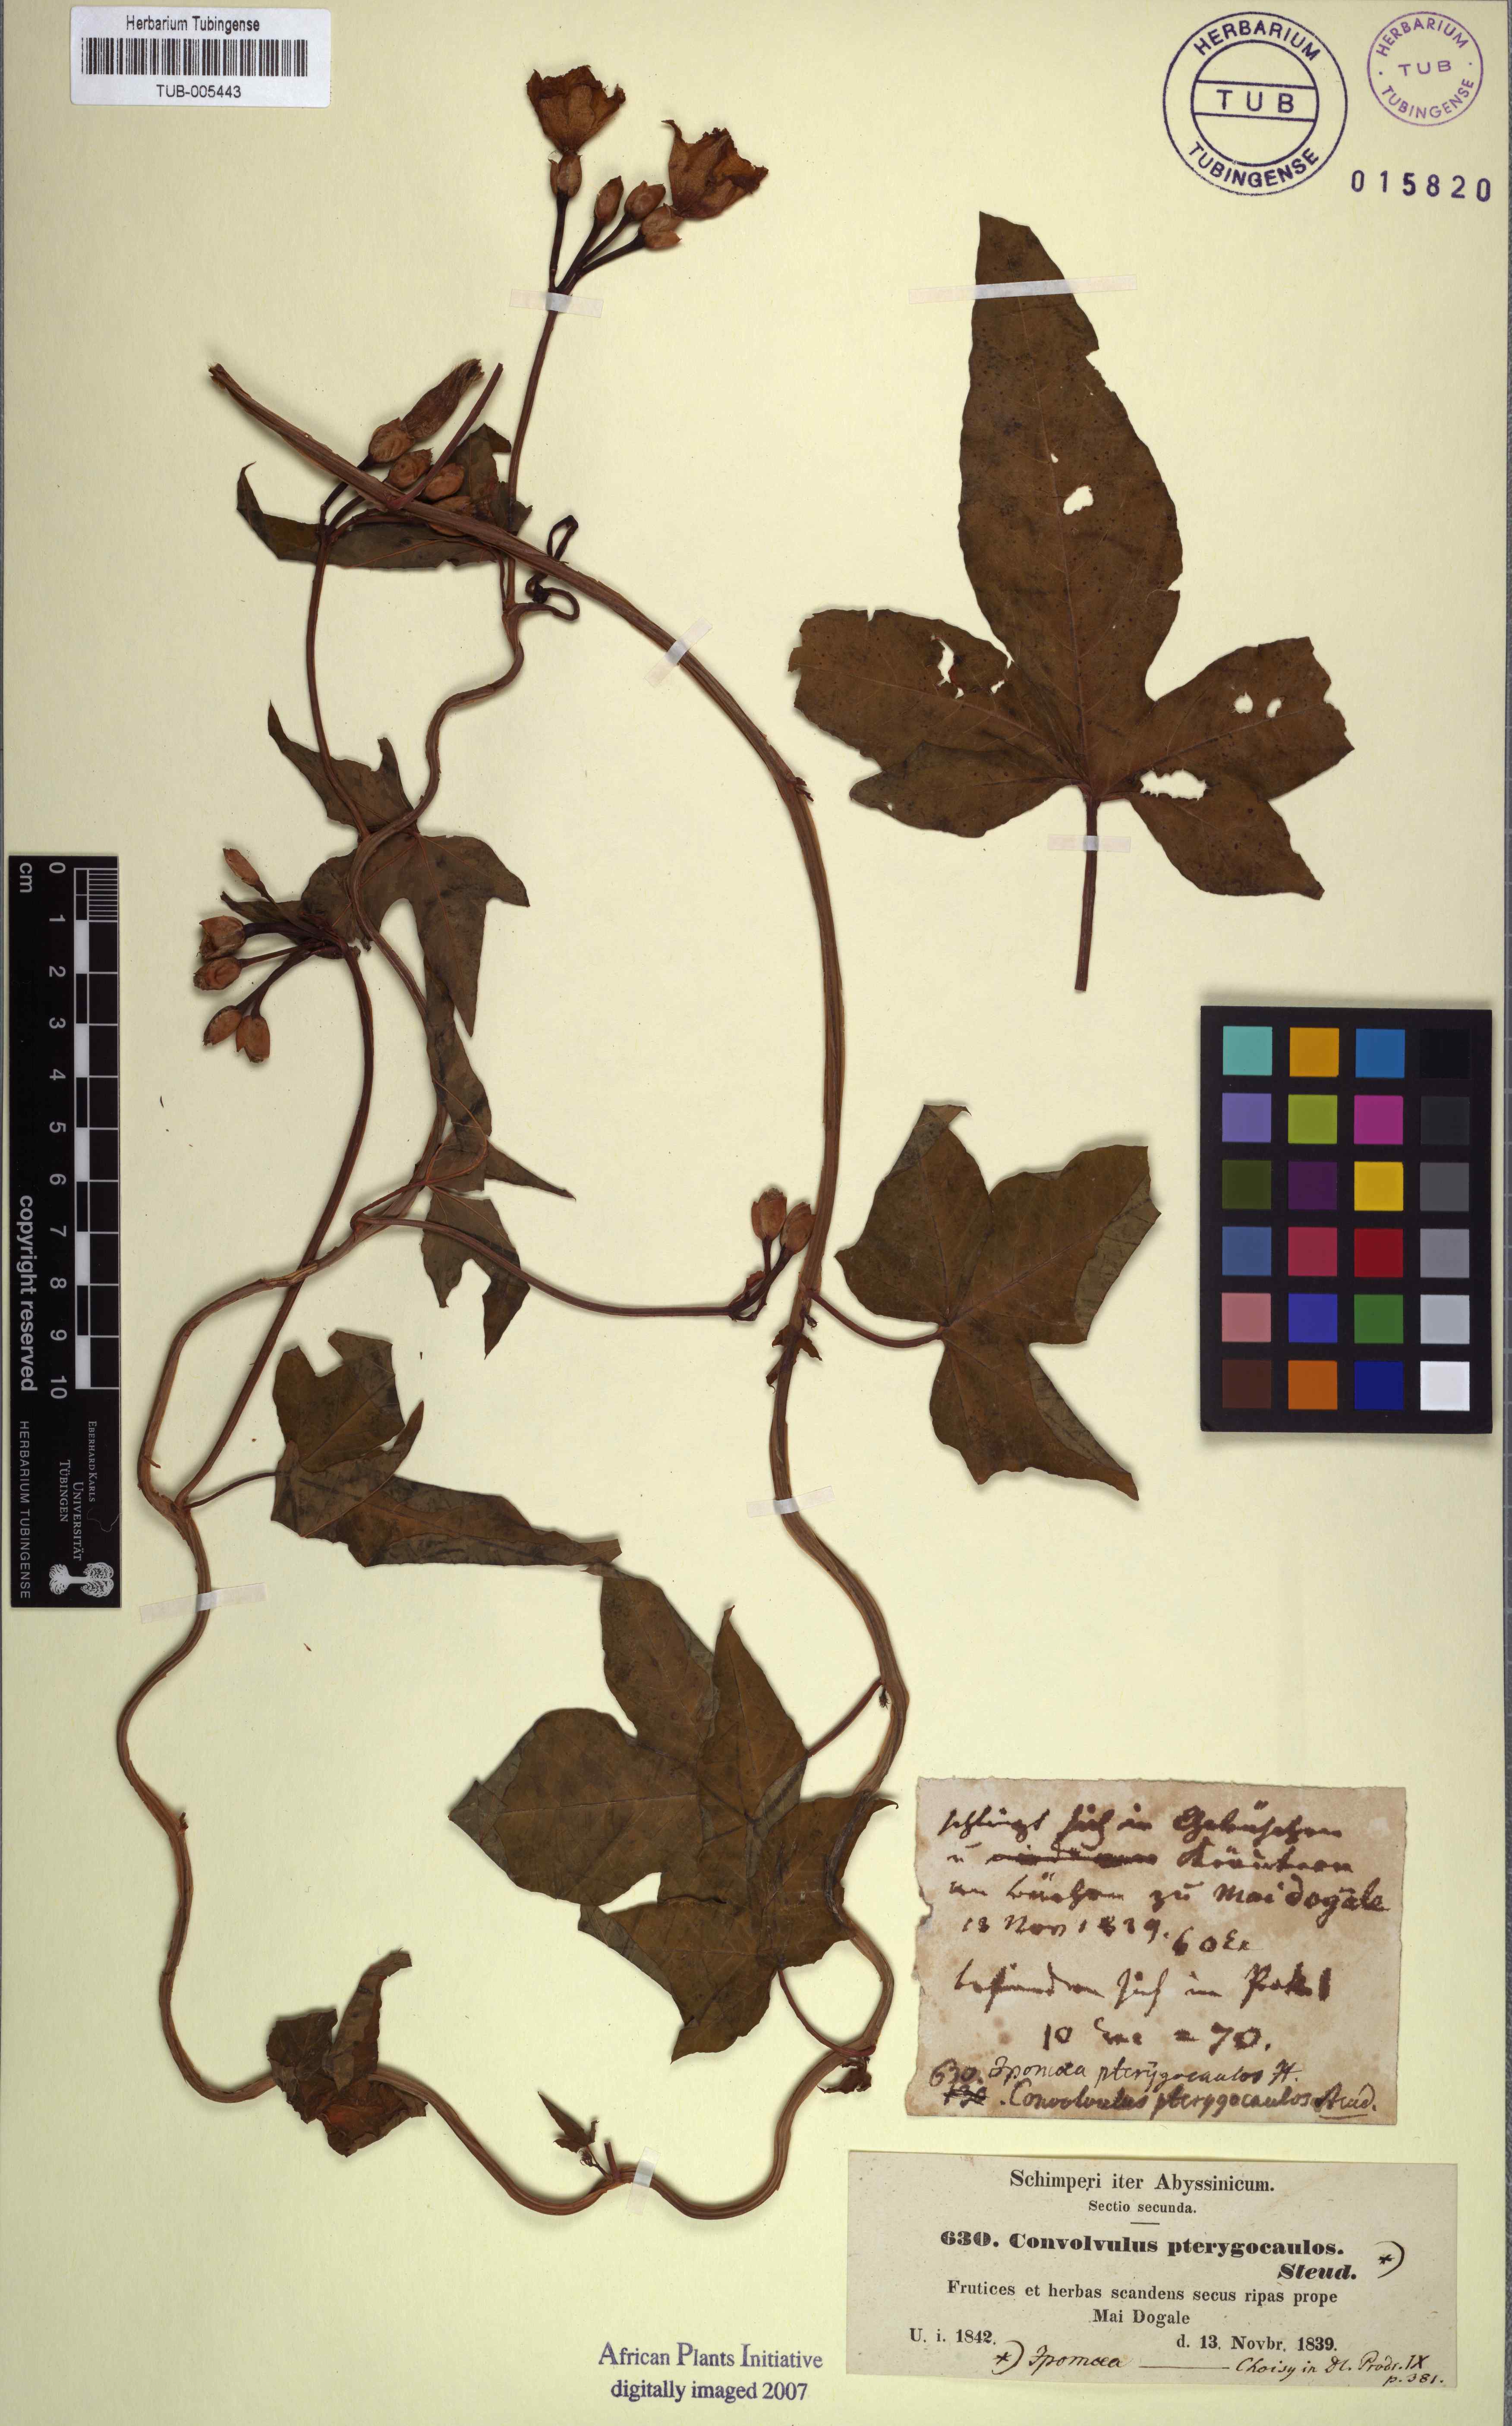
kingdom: Plantae
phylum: Tracheophyta
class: Magnoliopsida
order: Solanales
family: Convolvulaceae
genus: Merremia
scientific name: Merremia pterygocaulos
